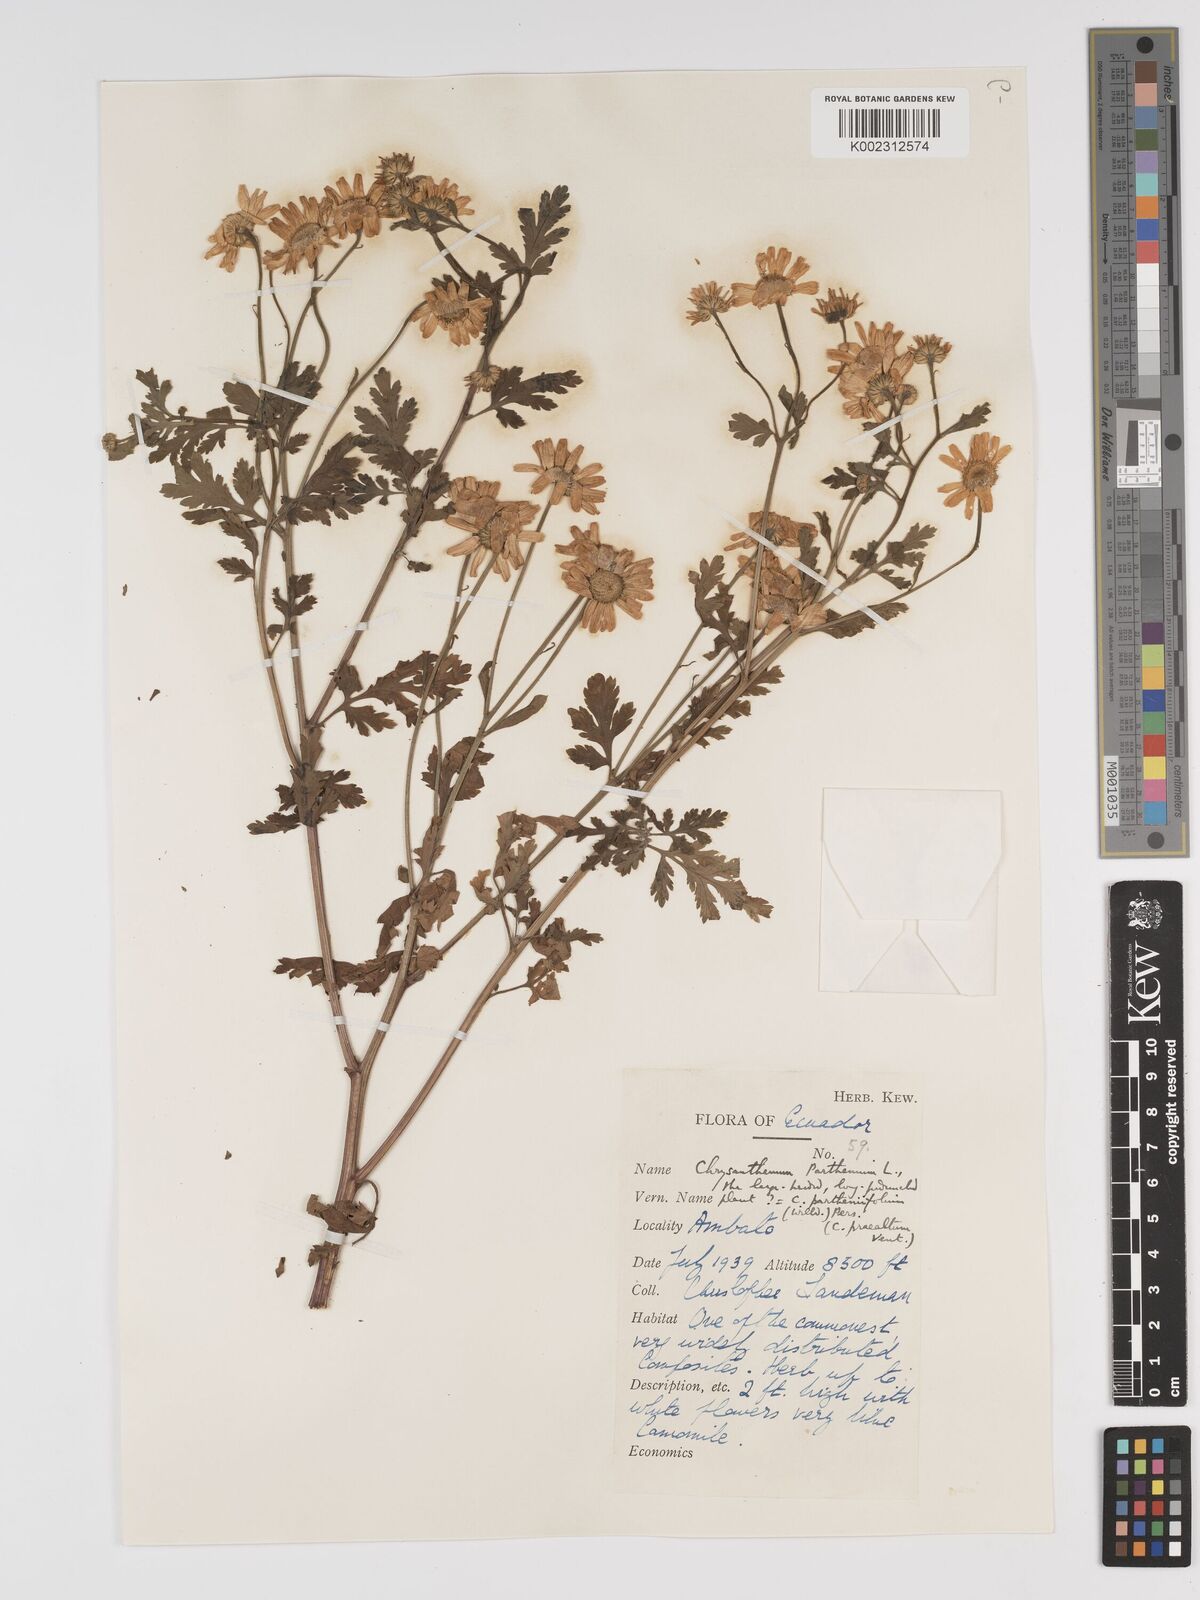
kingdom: Plantae
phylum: Tracheophyta
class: Magnoliopsida
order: Asterales
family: Asteraceae
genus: Tanacetum
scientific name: Tanacetum parthenium
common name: Feverfew
